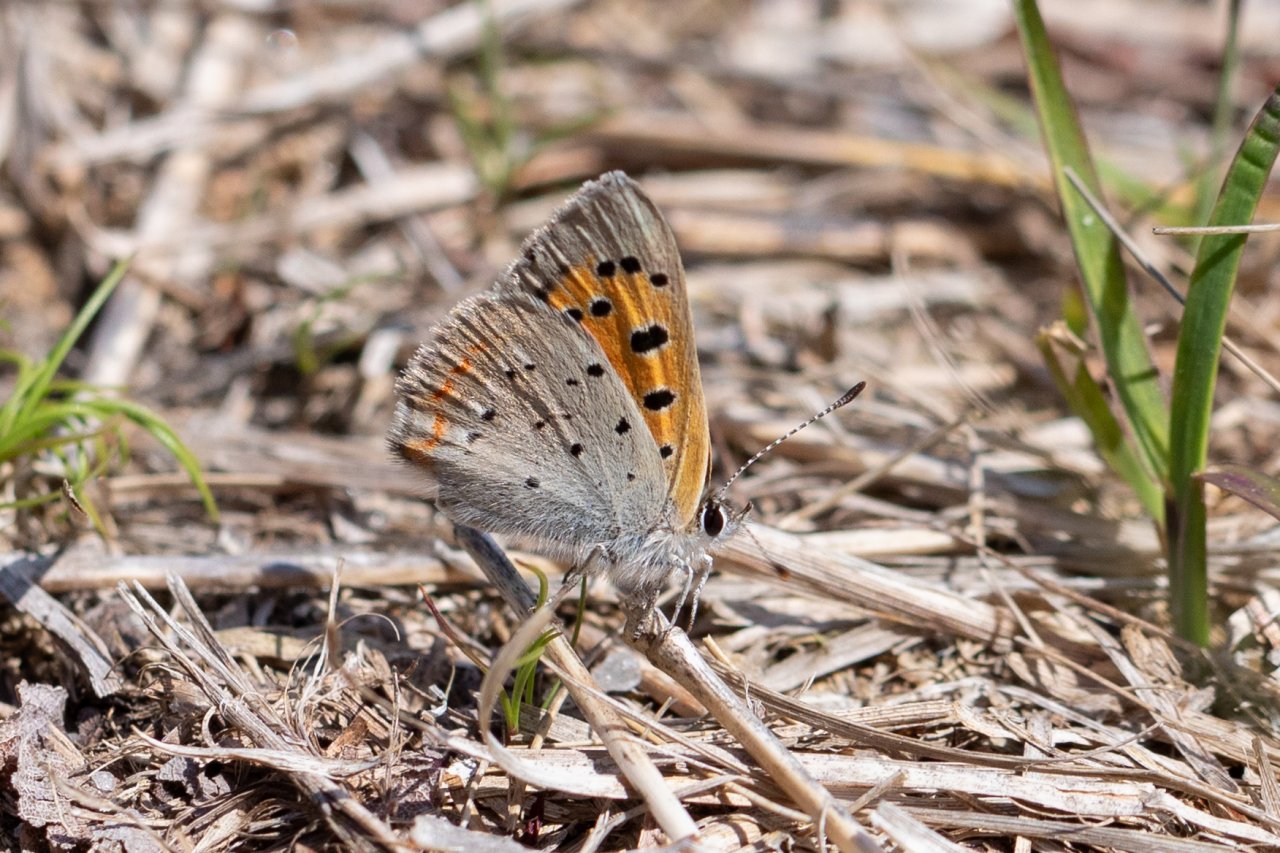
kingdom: Animalia
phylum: Arthropoda
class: Insecta
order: Lepidoptera
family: Lycaenidae
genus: Lycaena
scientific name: Lycaena phlaeas
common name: American Copper
